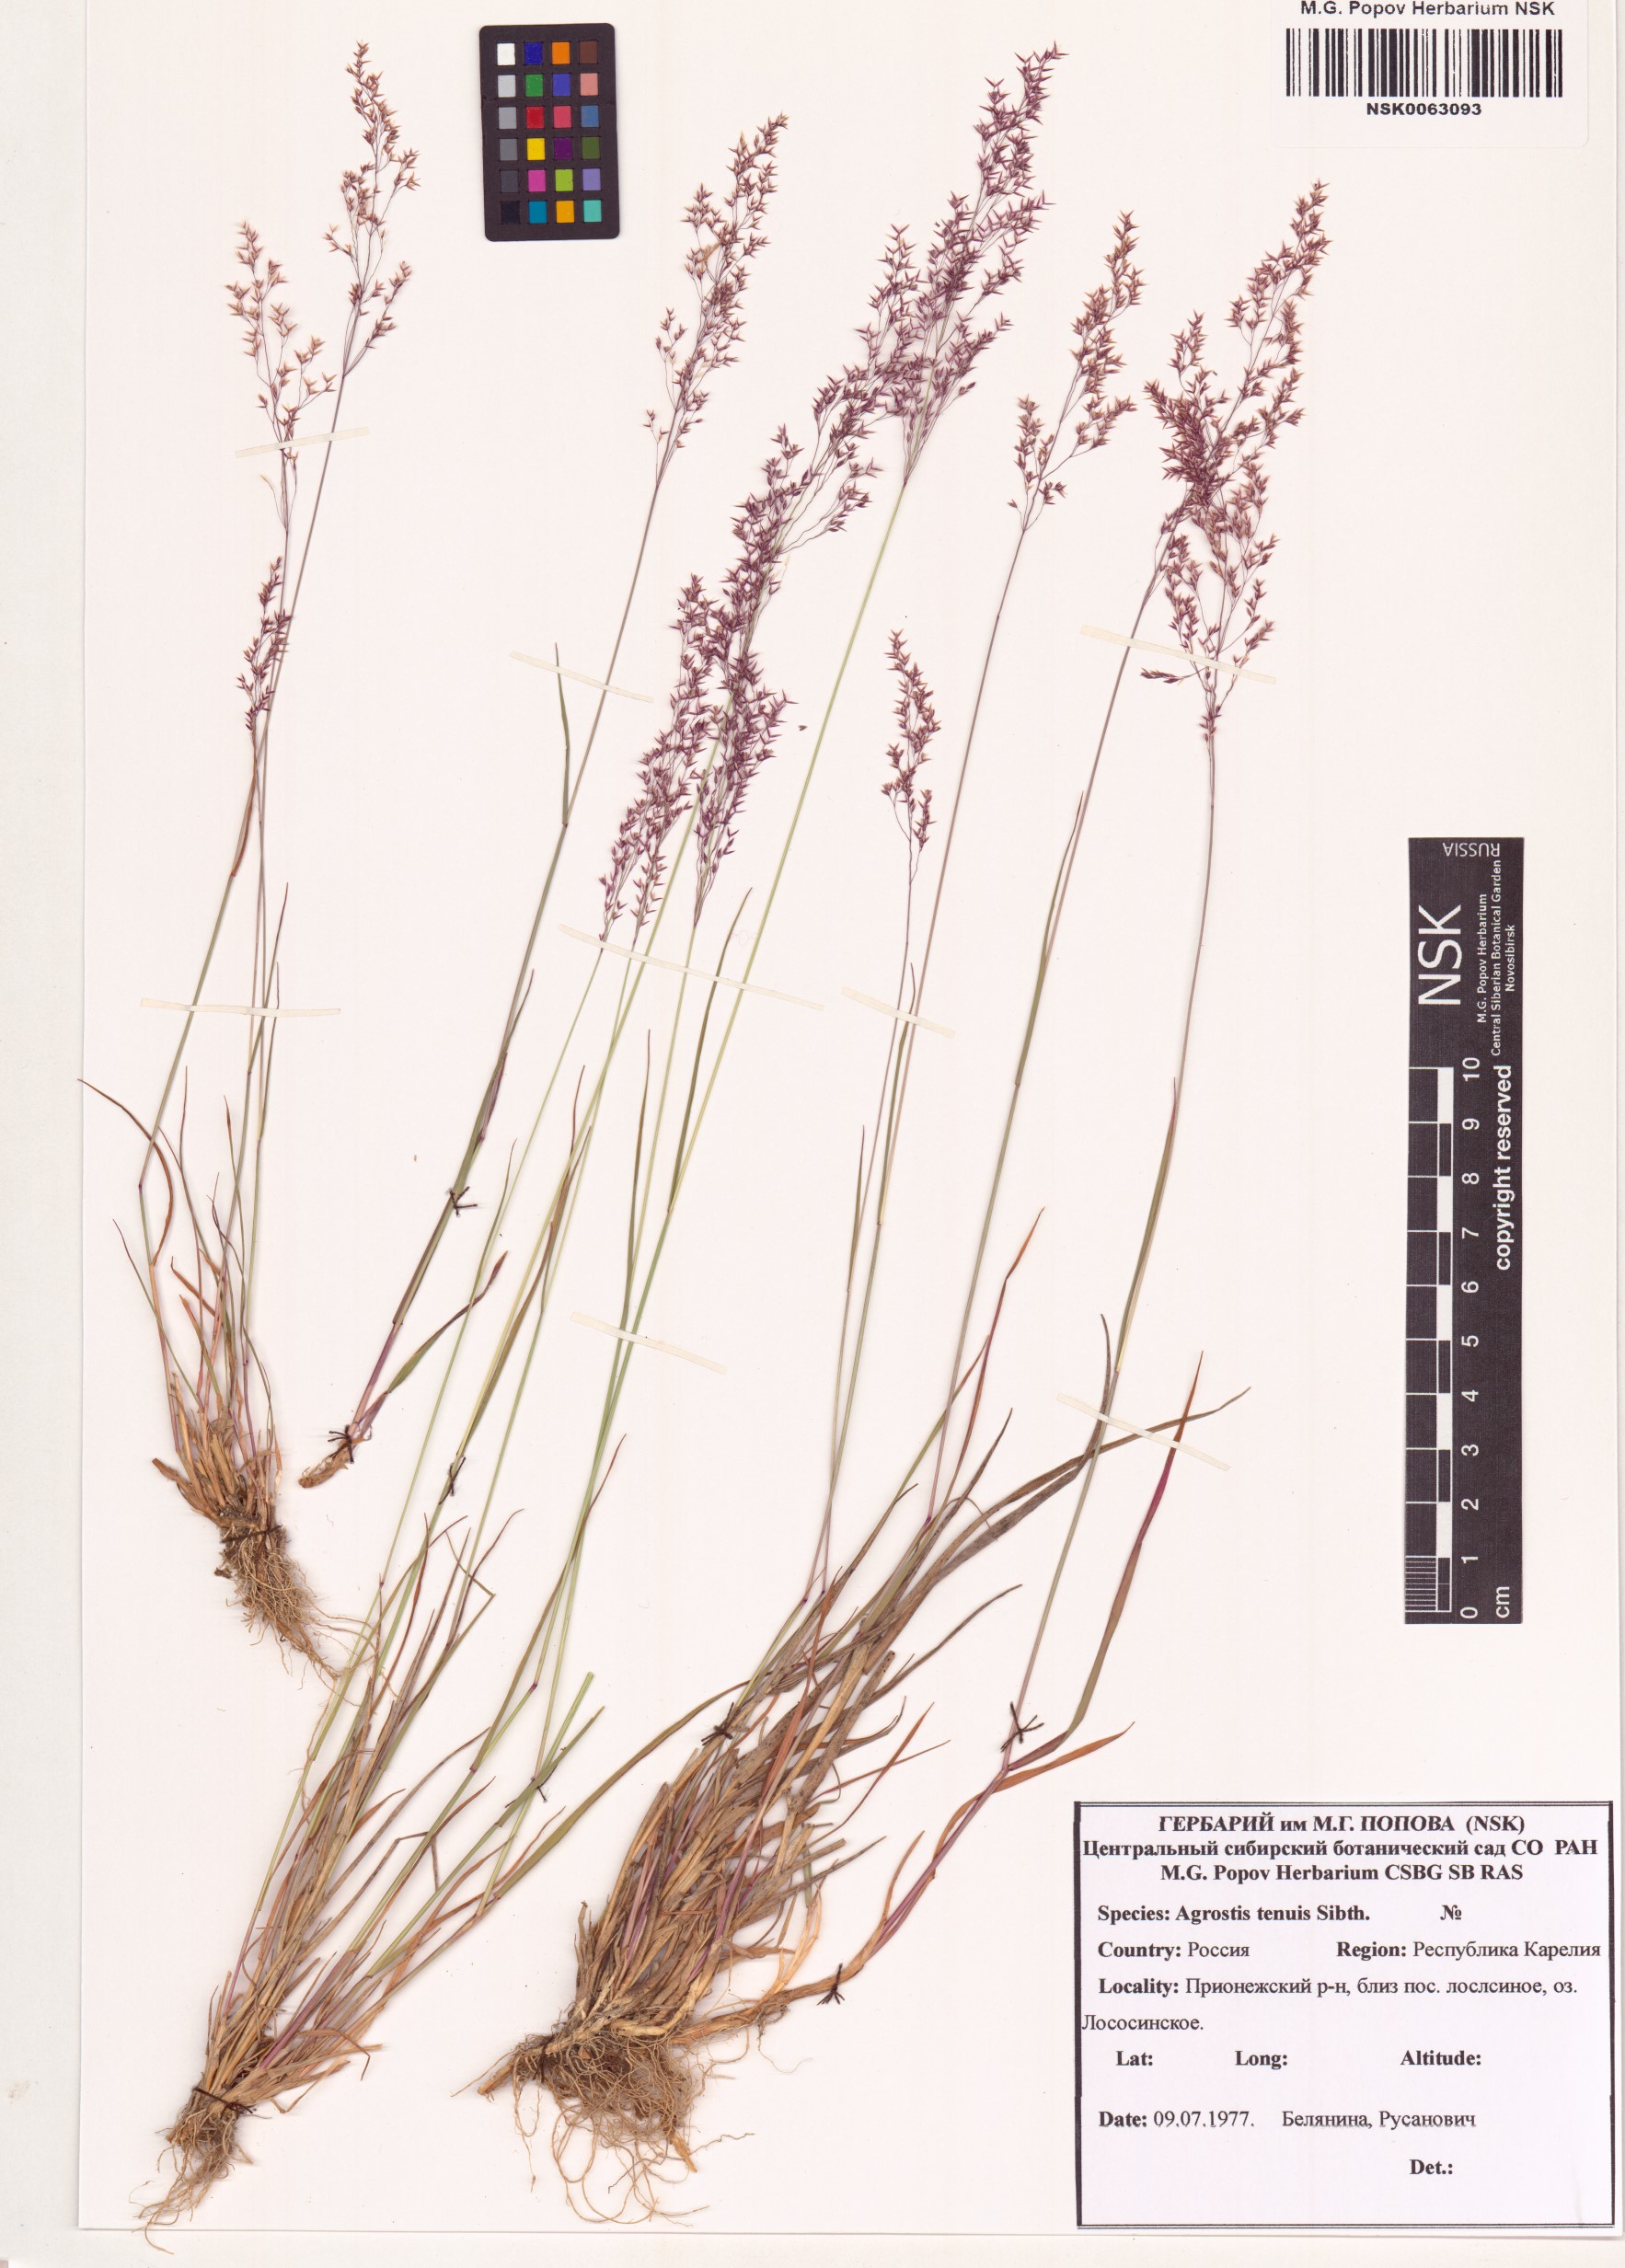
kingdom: Plantae
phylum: Tracheophyta
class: Liliopsida
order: Poales
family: Poaceae
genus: Agrostis
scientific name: Agrostis capillaris
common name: Colonial bentgrass
